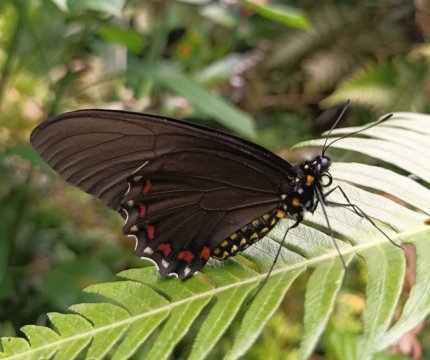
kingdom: Animalia
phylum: Arthropoda
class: Insecta
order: Lepidoptera
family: Papilionidae
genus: Battus
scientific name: Battus
